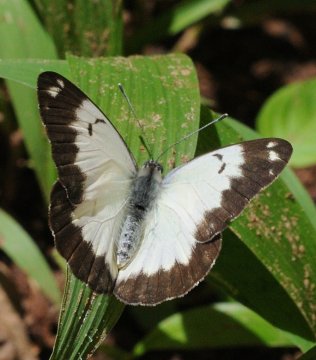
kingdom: Animalia
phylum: Arthropoda
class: Insecta
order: Lepidoptera
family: Pieridae
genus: Belenois
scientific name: Belenois creona
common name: African Caper
